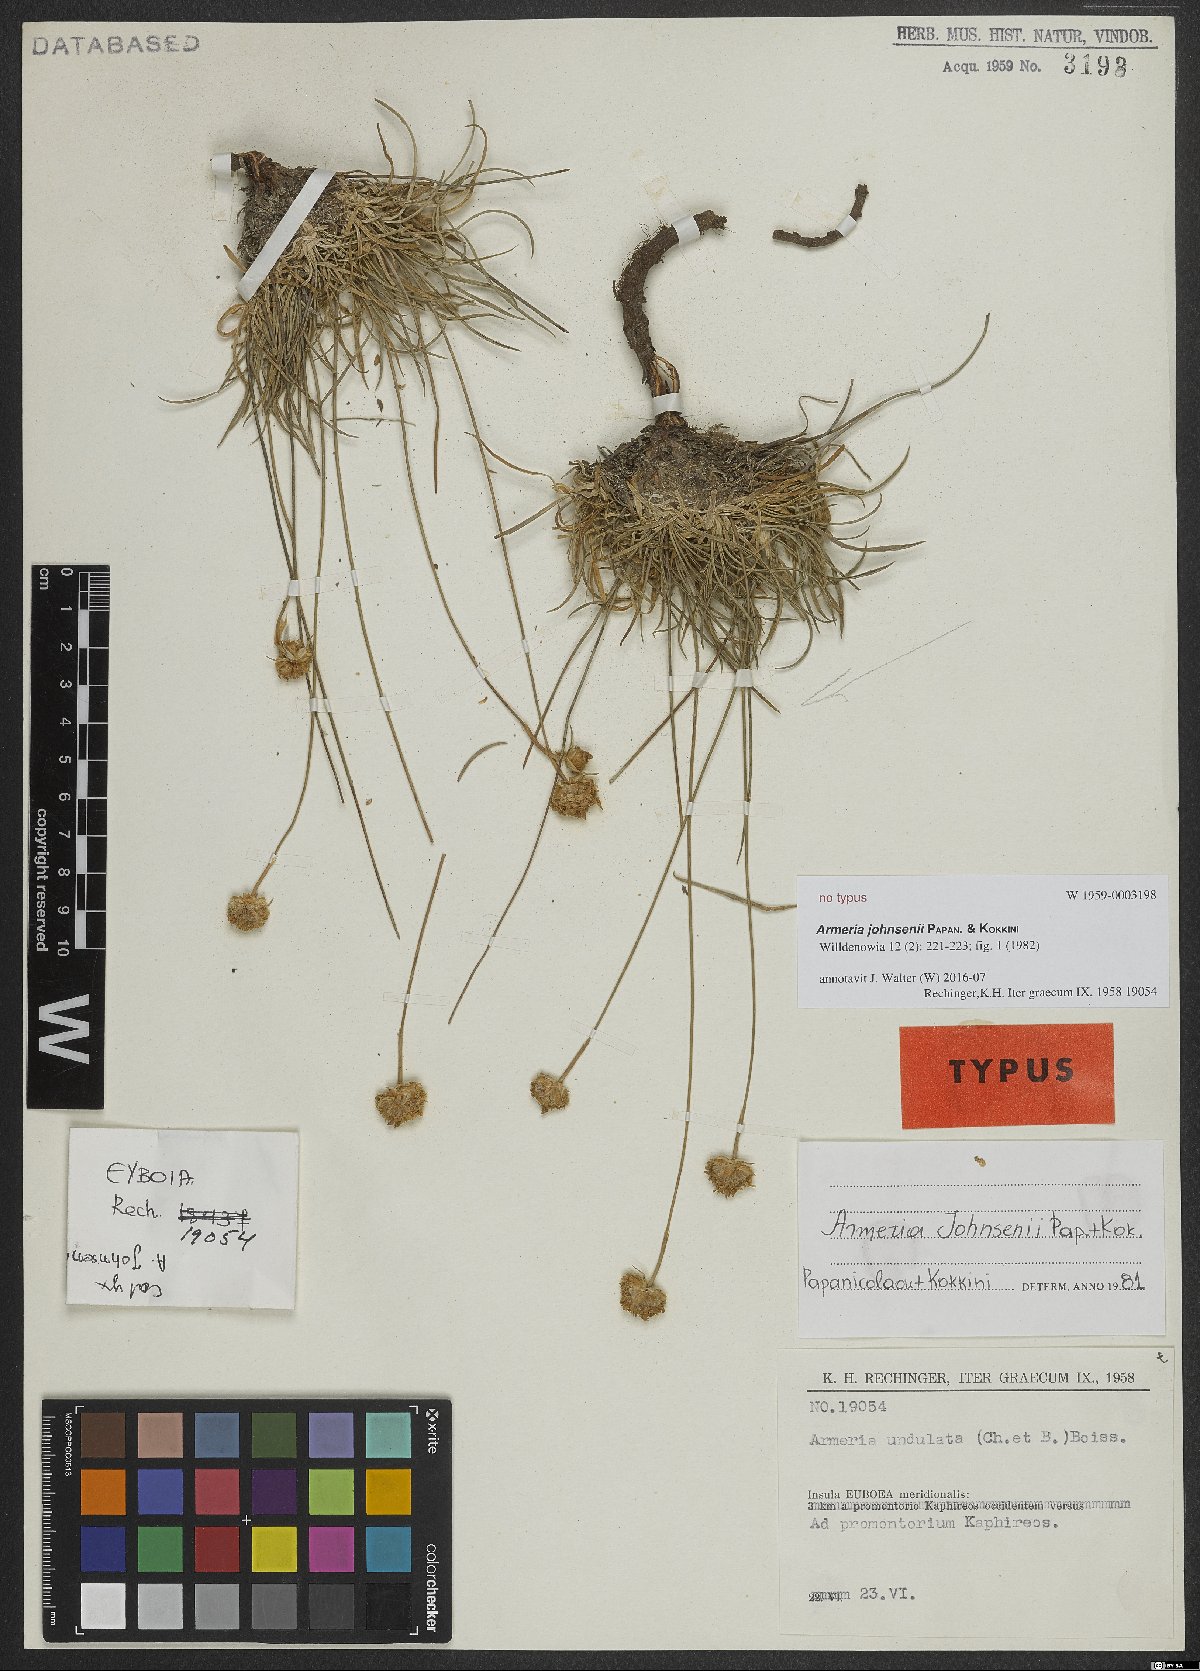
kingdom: Plantae
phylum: Tracheophyta
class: Magnoliopsida
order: Caryophyllales
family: Plumbaginaceae
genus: Armeria
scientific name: Armeria johnsenii
